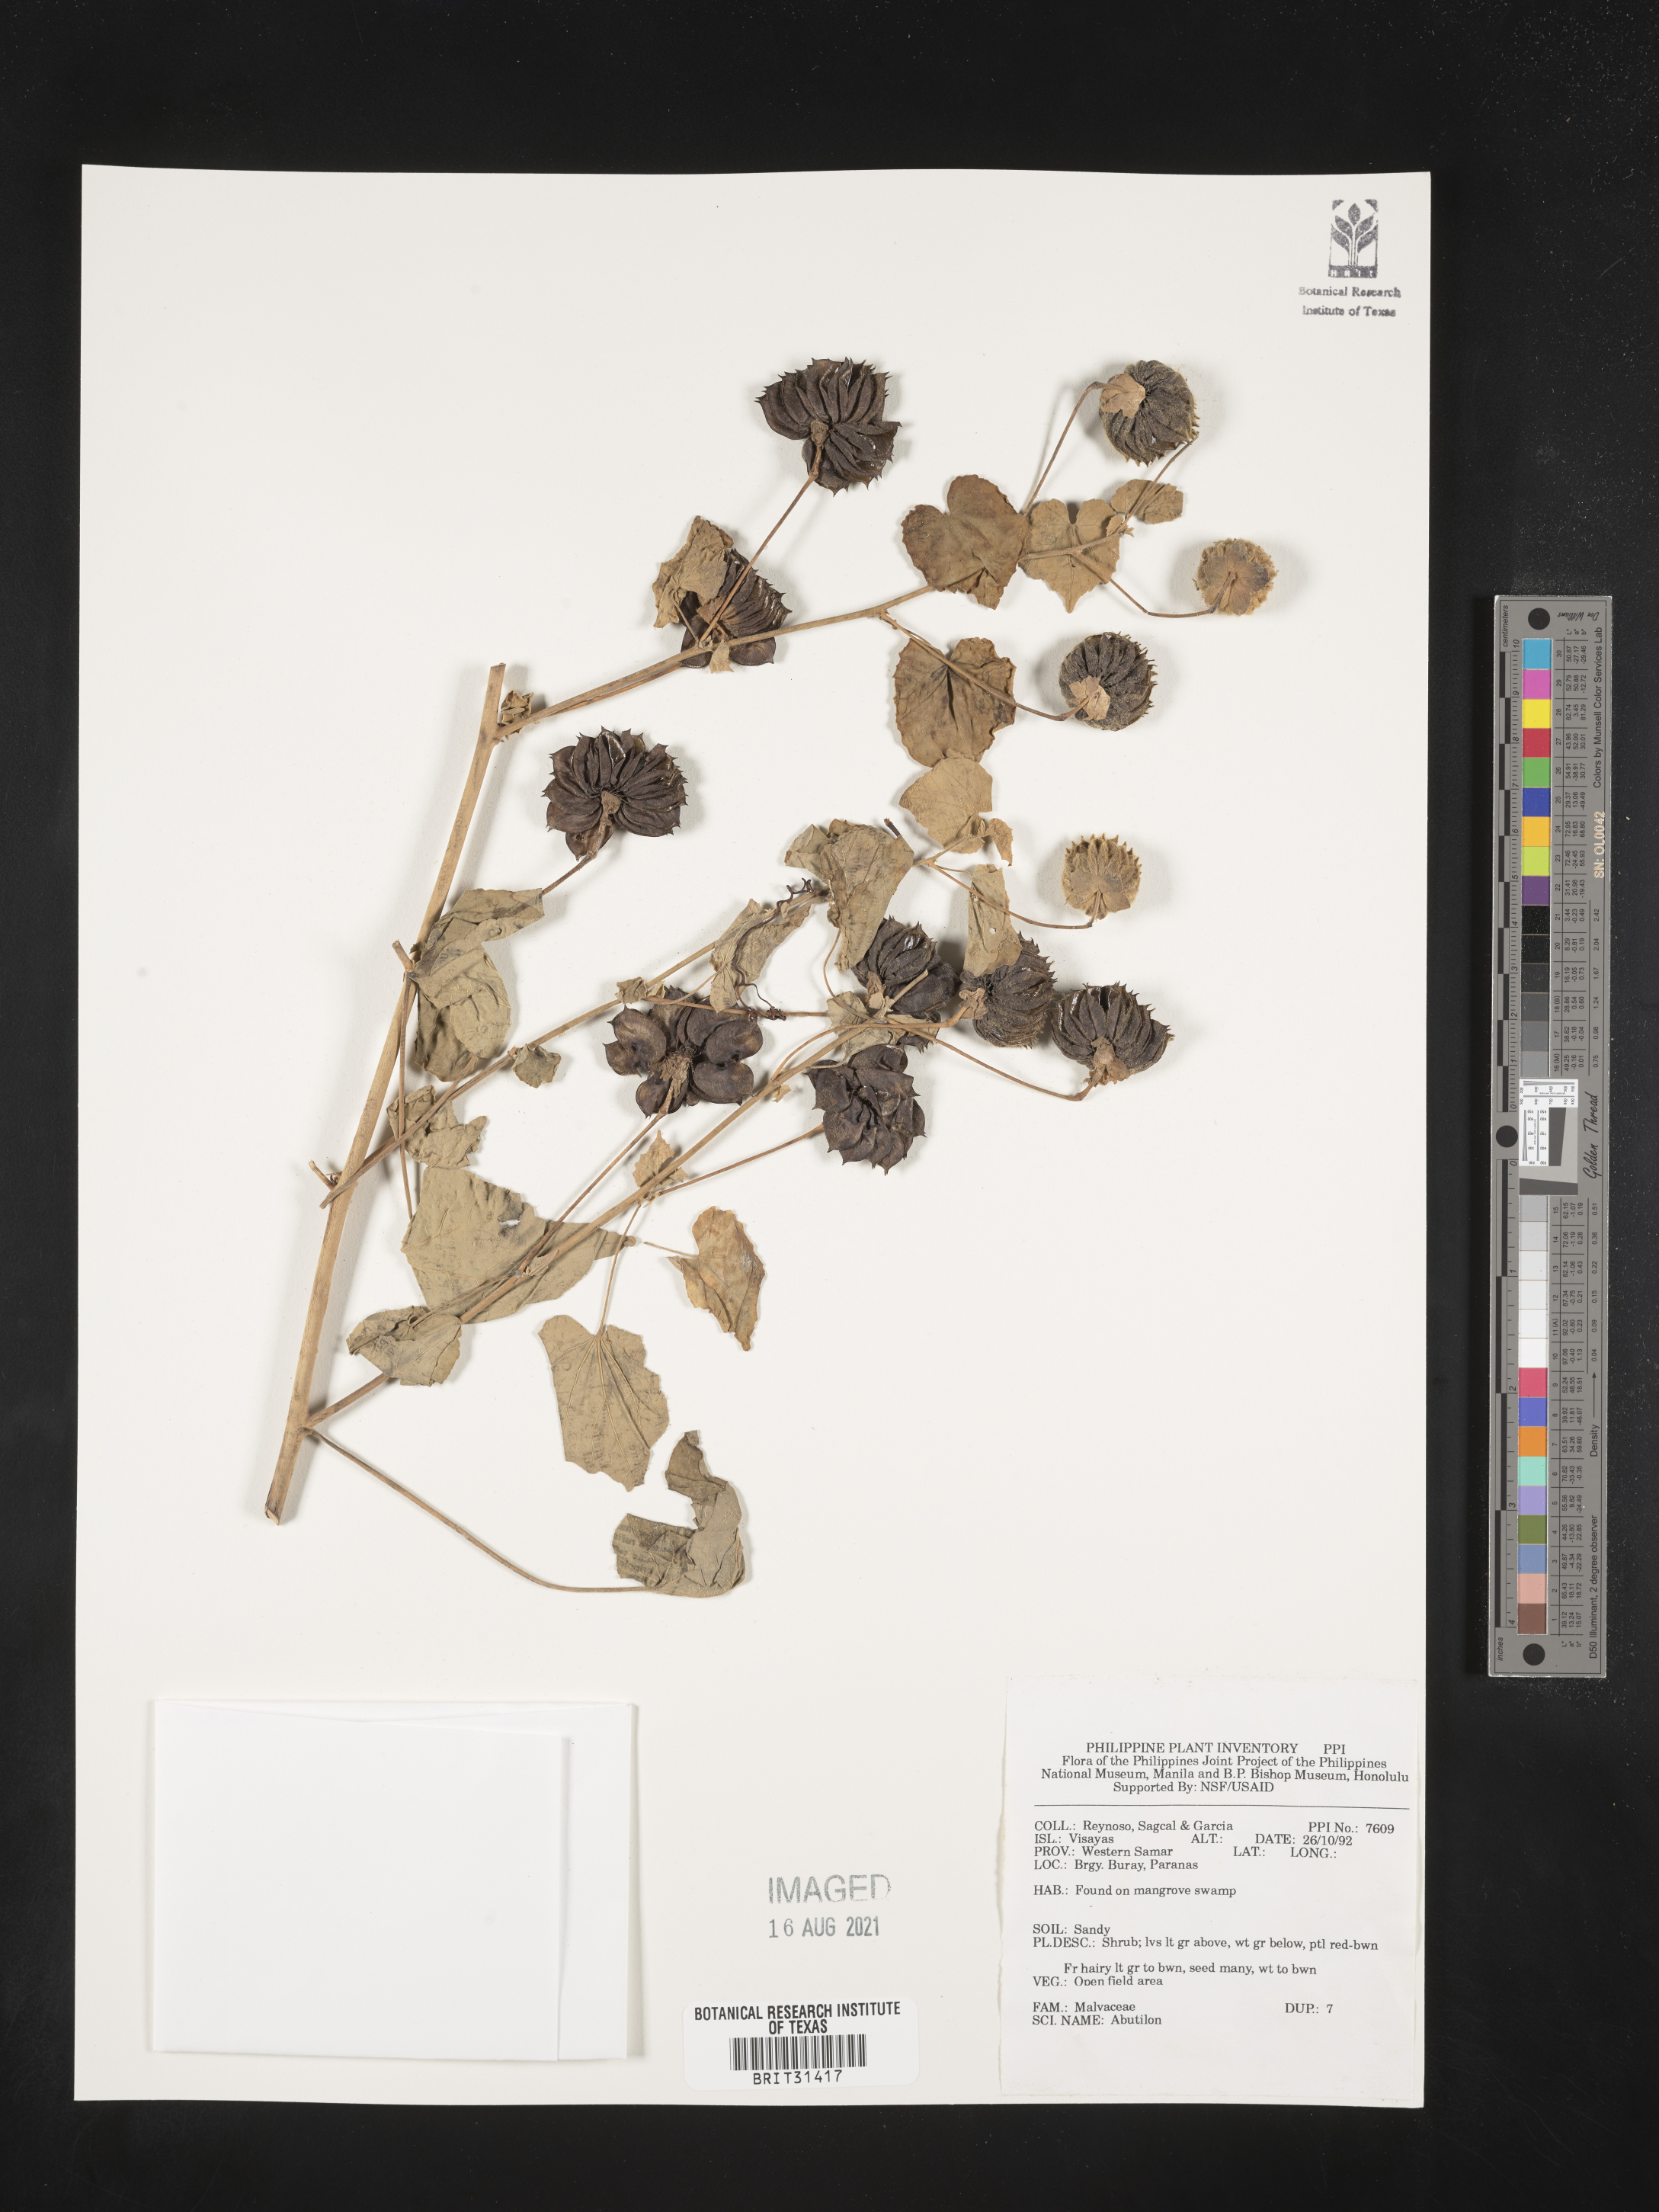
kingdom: Plantae
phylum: Tracheophyta
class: Magnoliopsida
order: Malvales
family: Malvaceae
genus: Abutilon
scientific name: Abutilon
